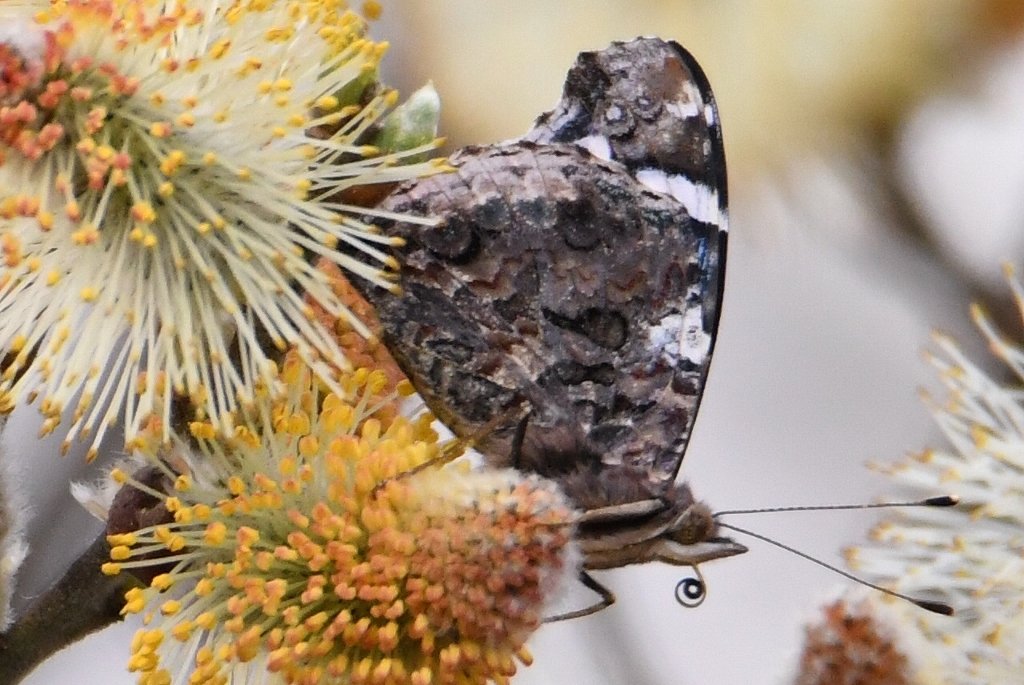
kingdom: Animalia
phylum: Arthropoda
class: Insecta
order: Lepidoptera
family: Nymphalidae
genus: Vanessa
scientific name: Vanessa atalanta
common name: Red Admiral
